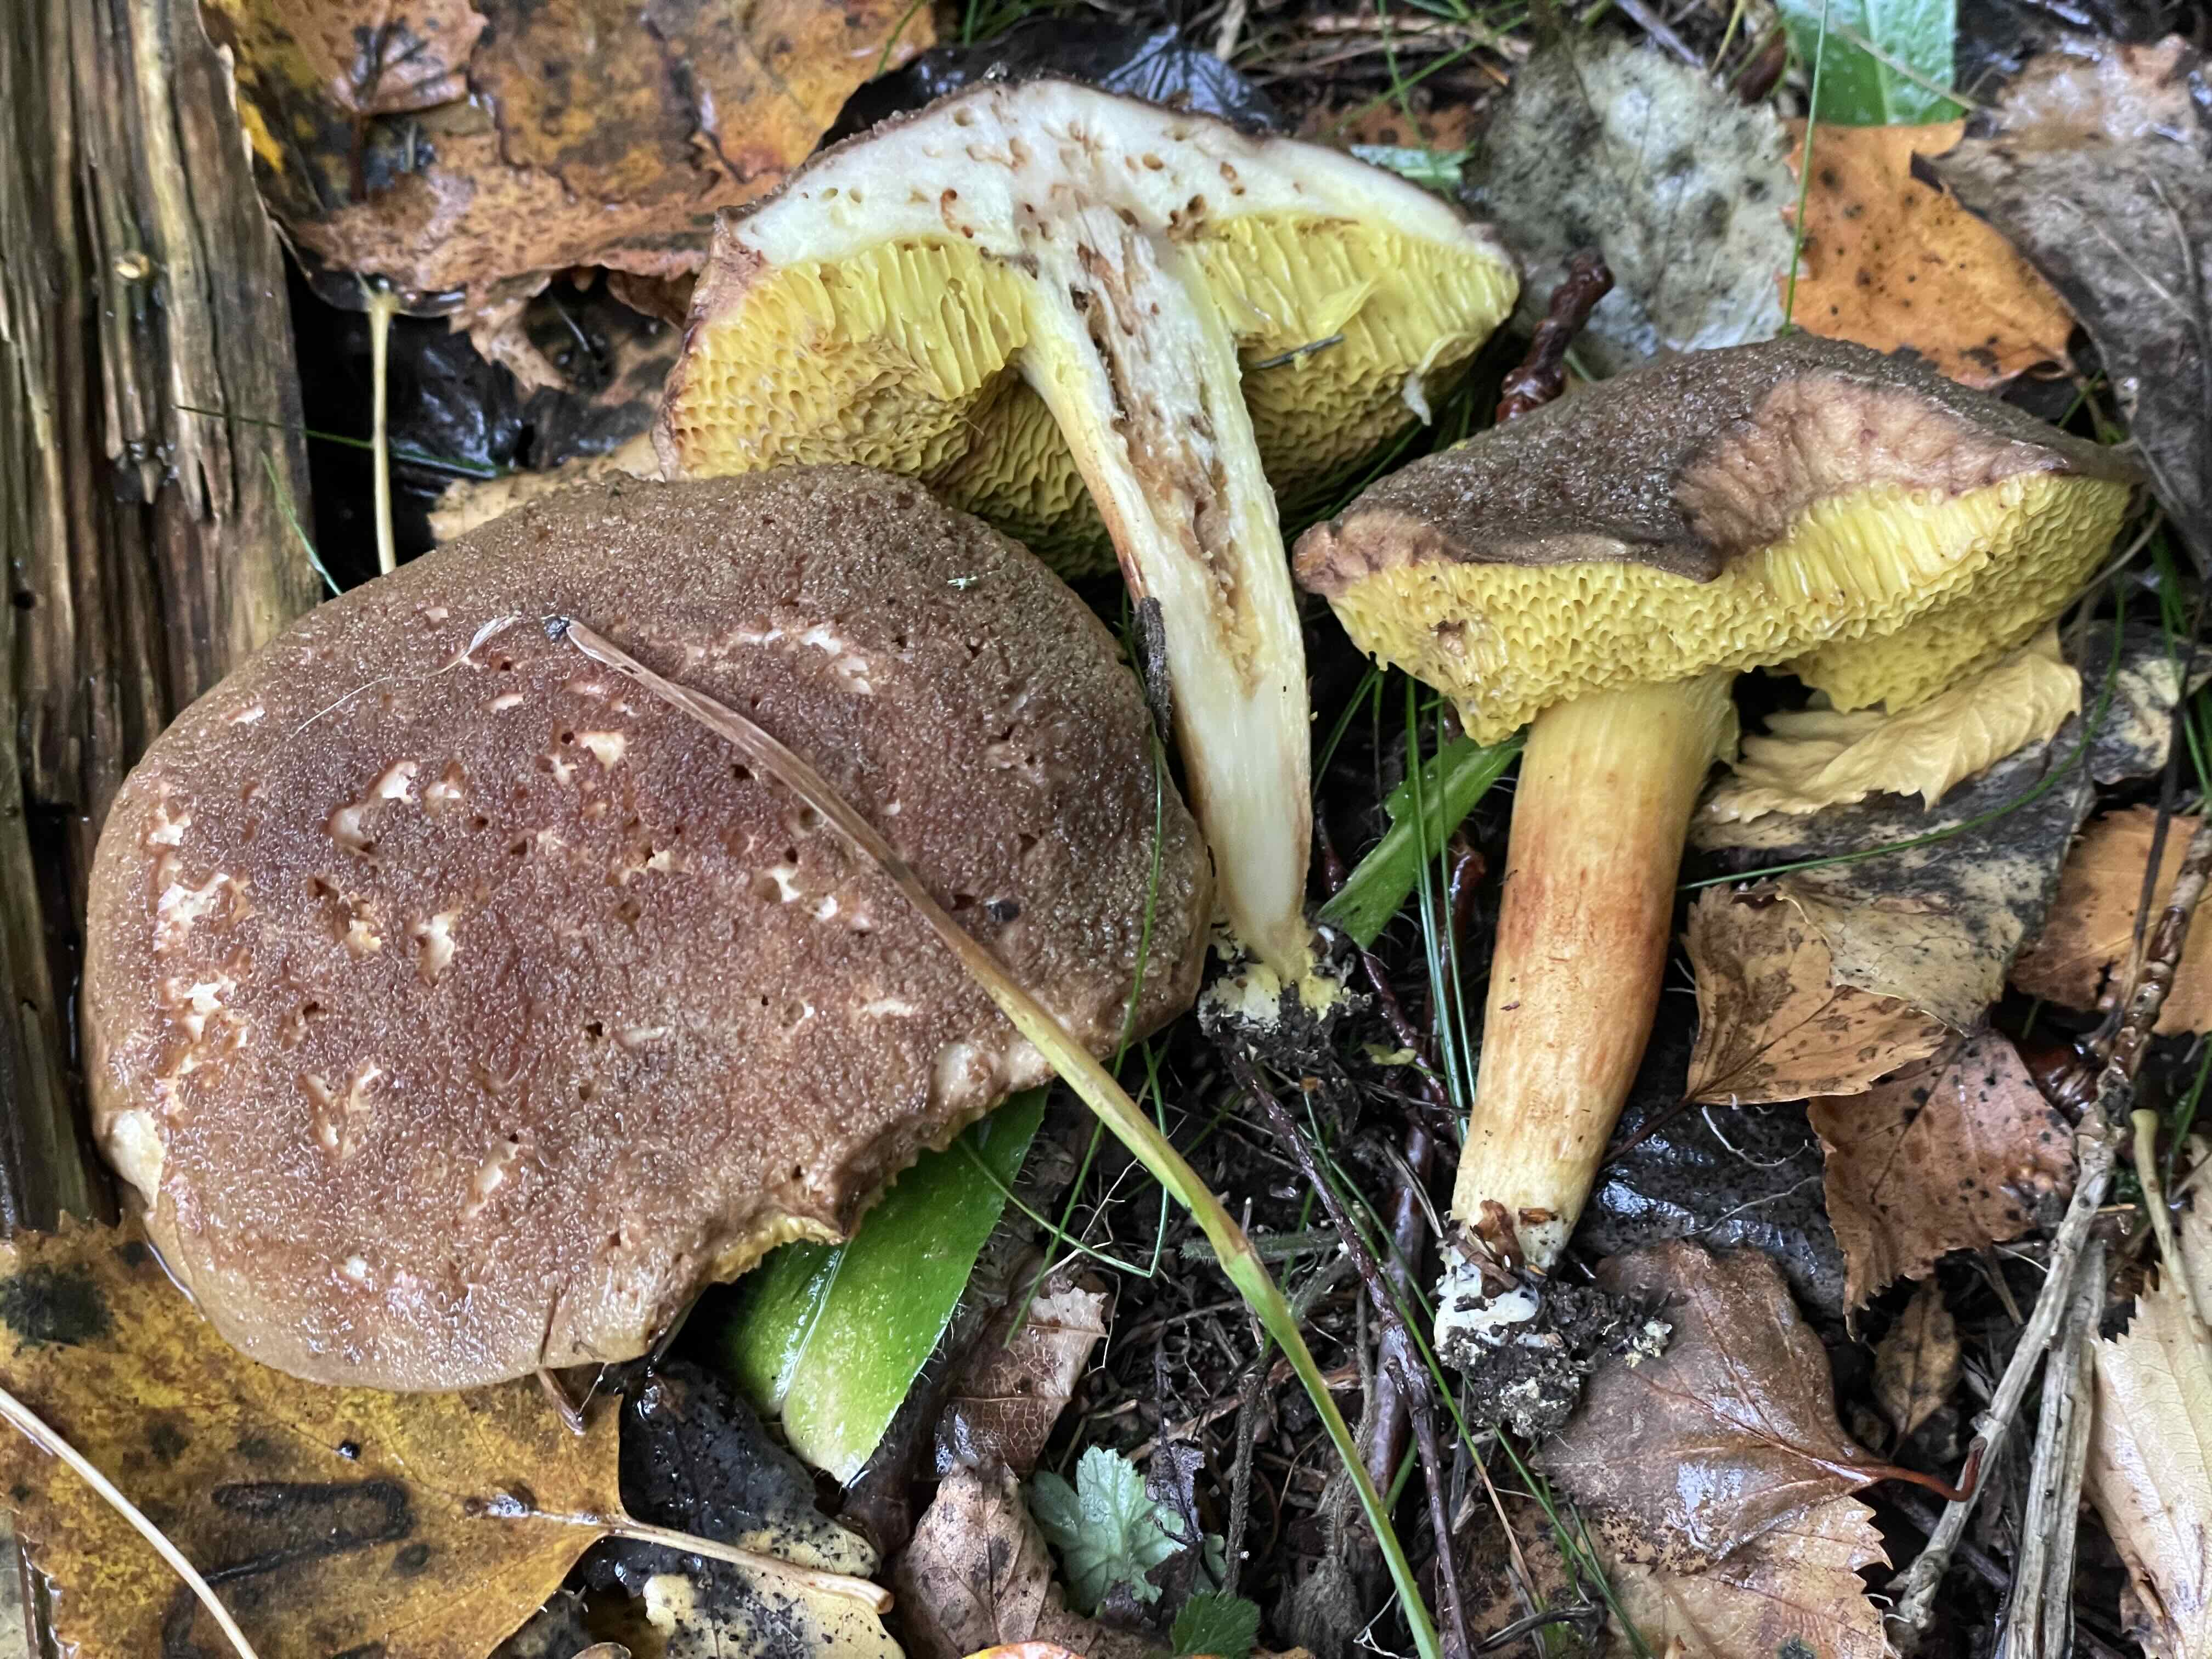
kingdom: Fungi
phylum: Basidiomycota
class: Agaricomycetes
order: Boletales
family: Boletaceae
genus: Xerocomus
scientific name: Xerocomus ferrugineus
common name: vaskeskinds-rørhat
